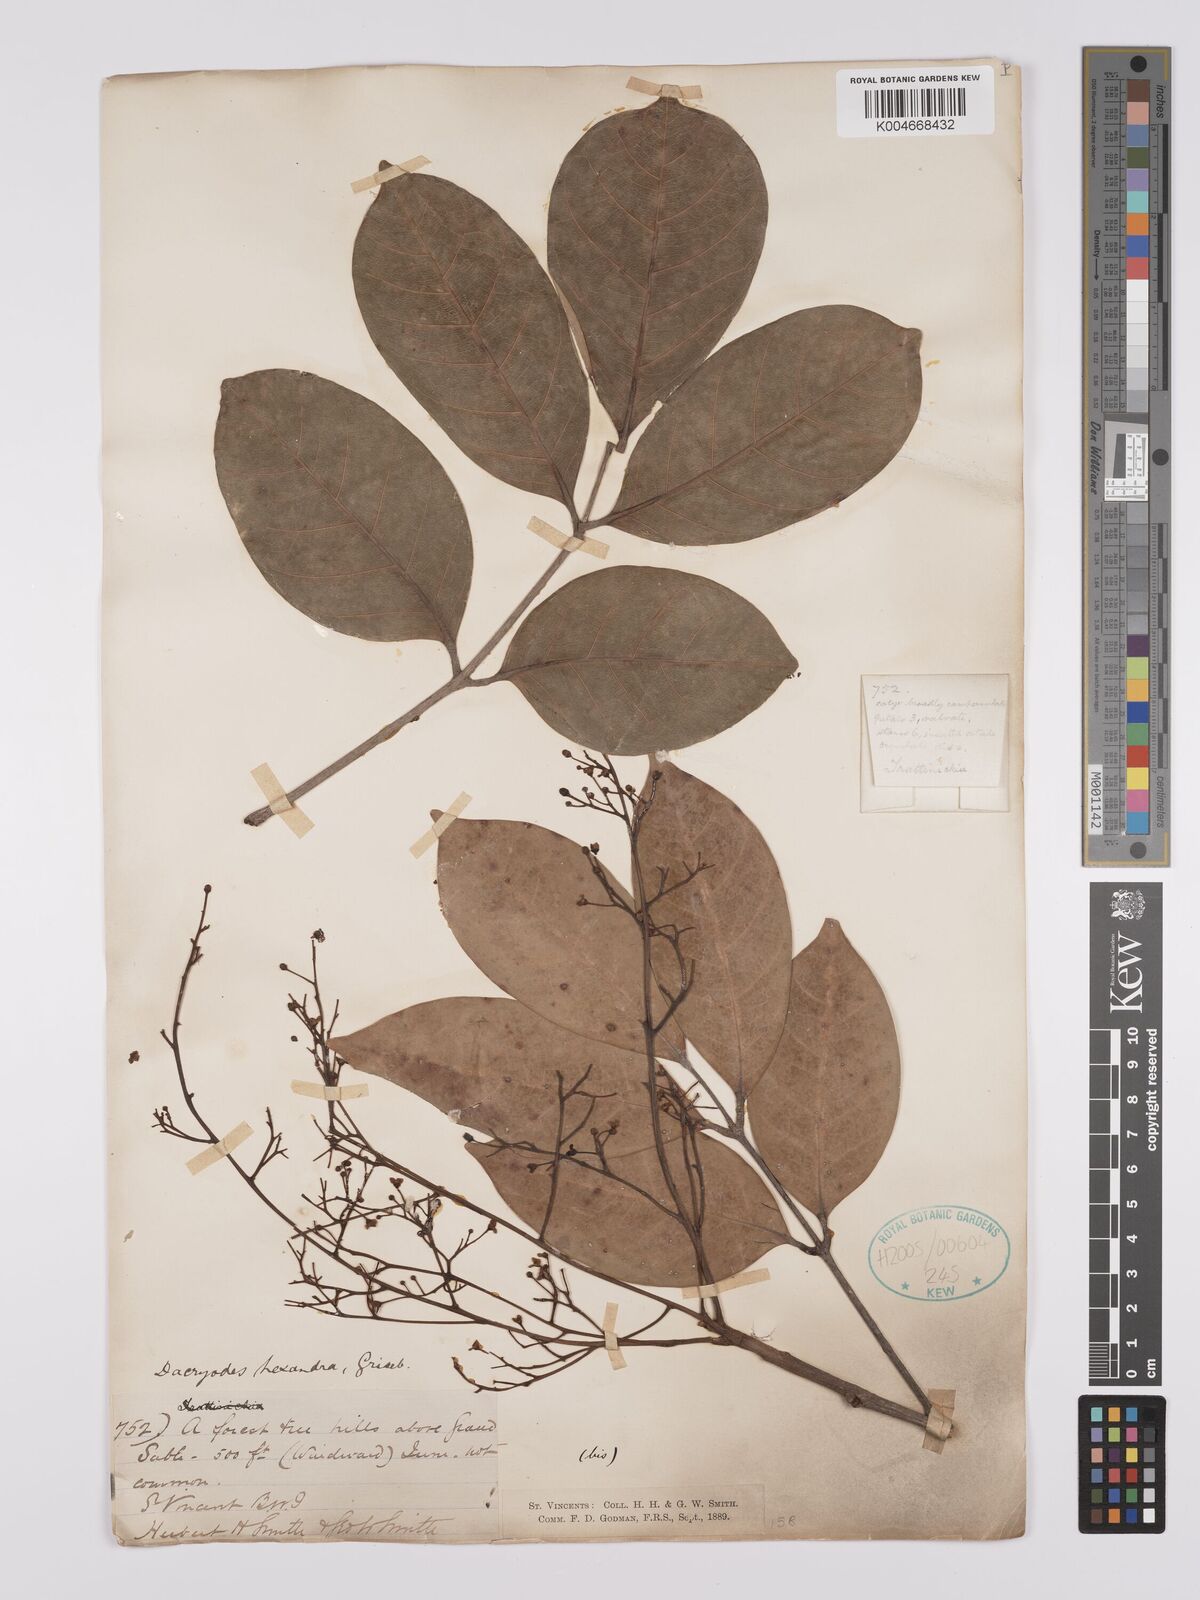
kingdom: Plantae
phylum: Tracheophyta
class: Magnoliopsida
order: Sapindales
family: Burseraceae
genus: Dacryodes
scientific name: Dacryodes excelsa
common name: Candlewood
